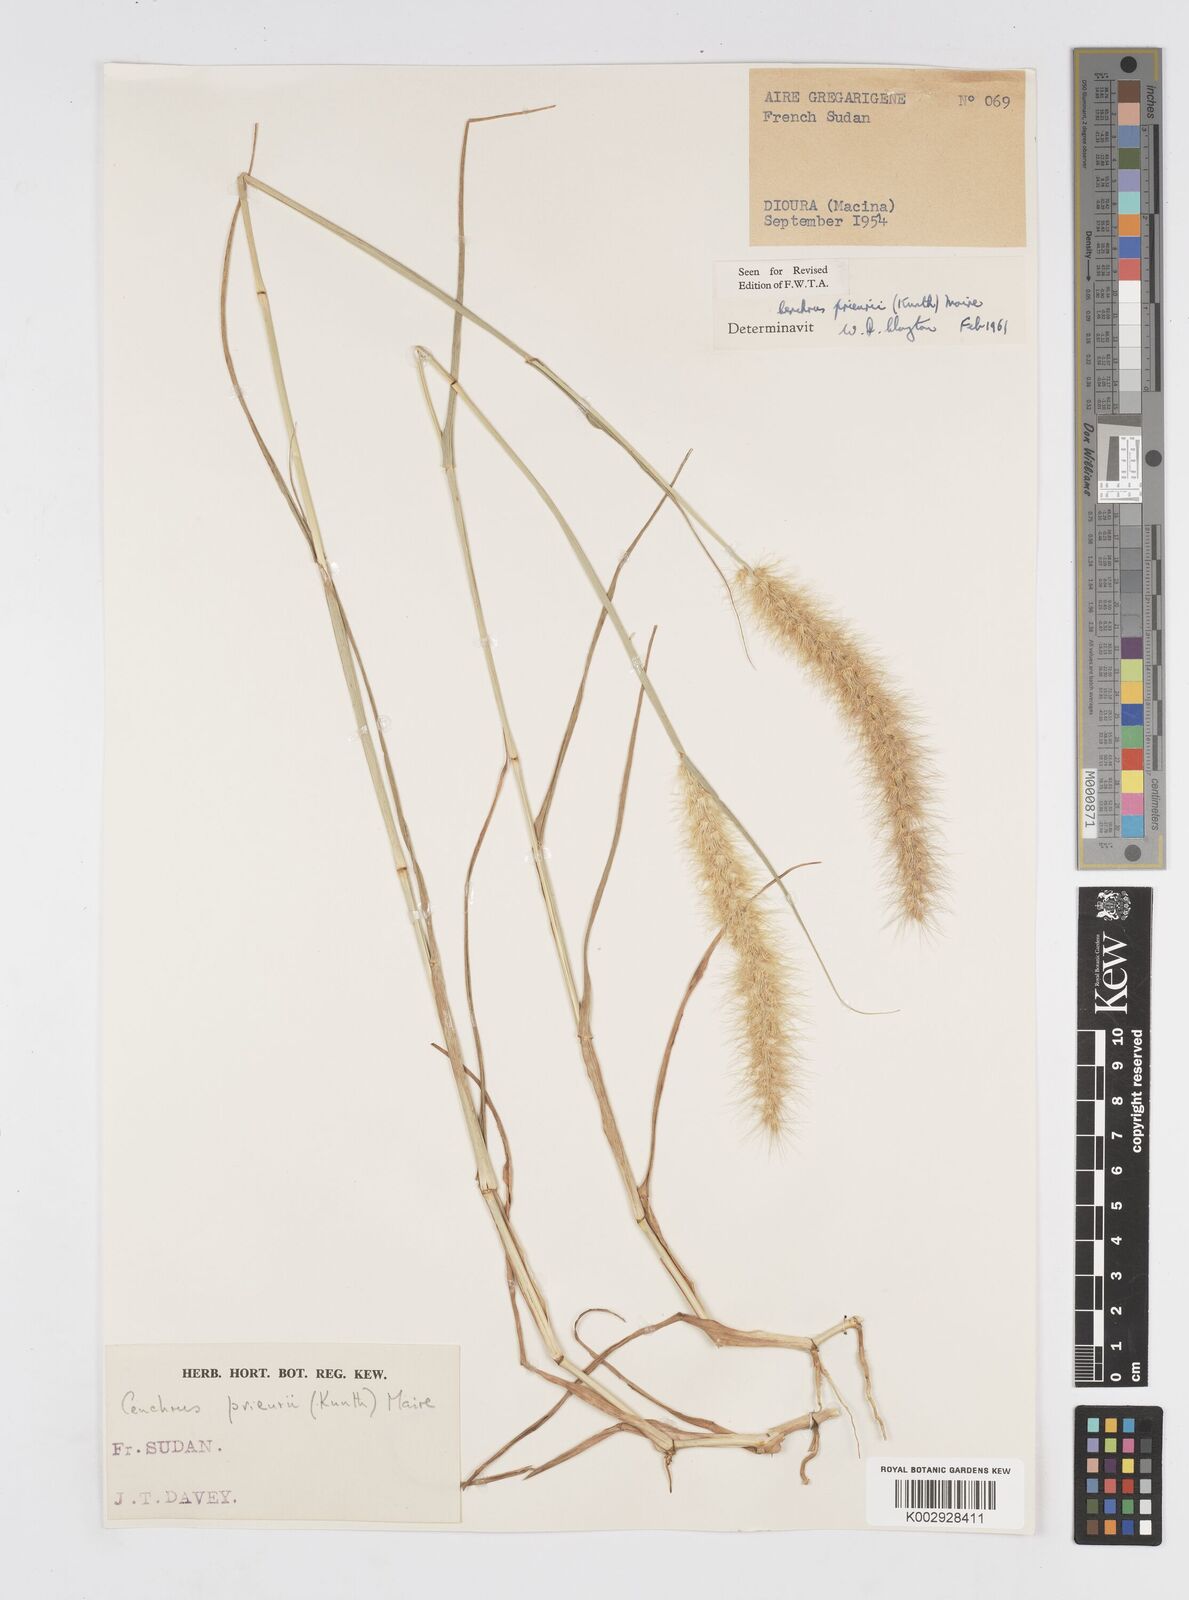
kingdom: Plantae
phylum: Tracheophyta
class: Liliopsida
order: Poales
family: Poaceae
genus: Cenchrus
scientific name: Cenchrus prieurii
